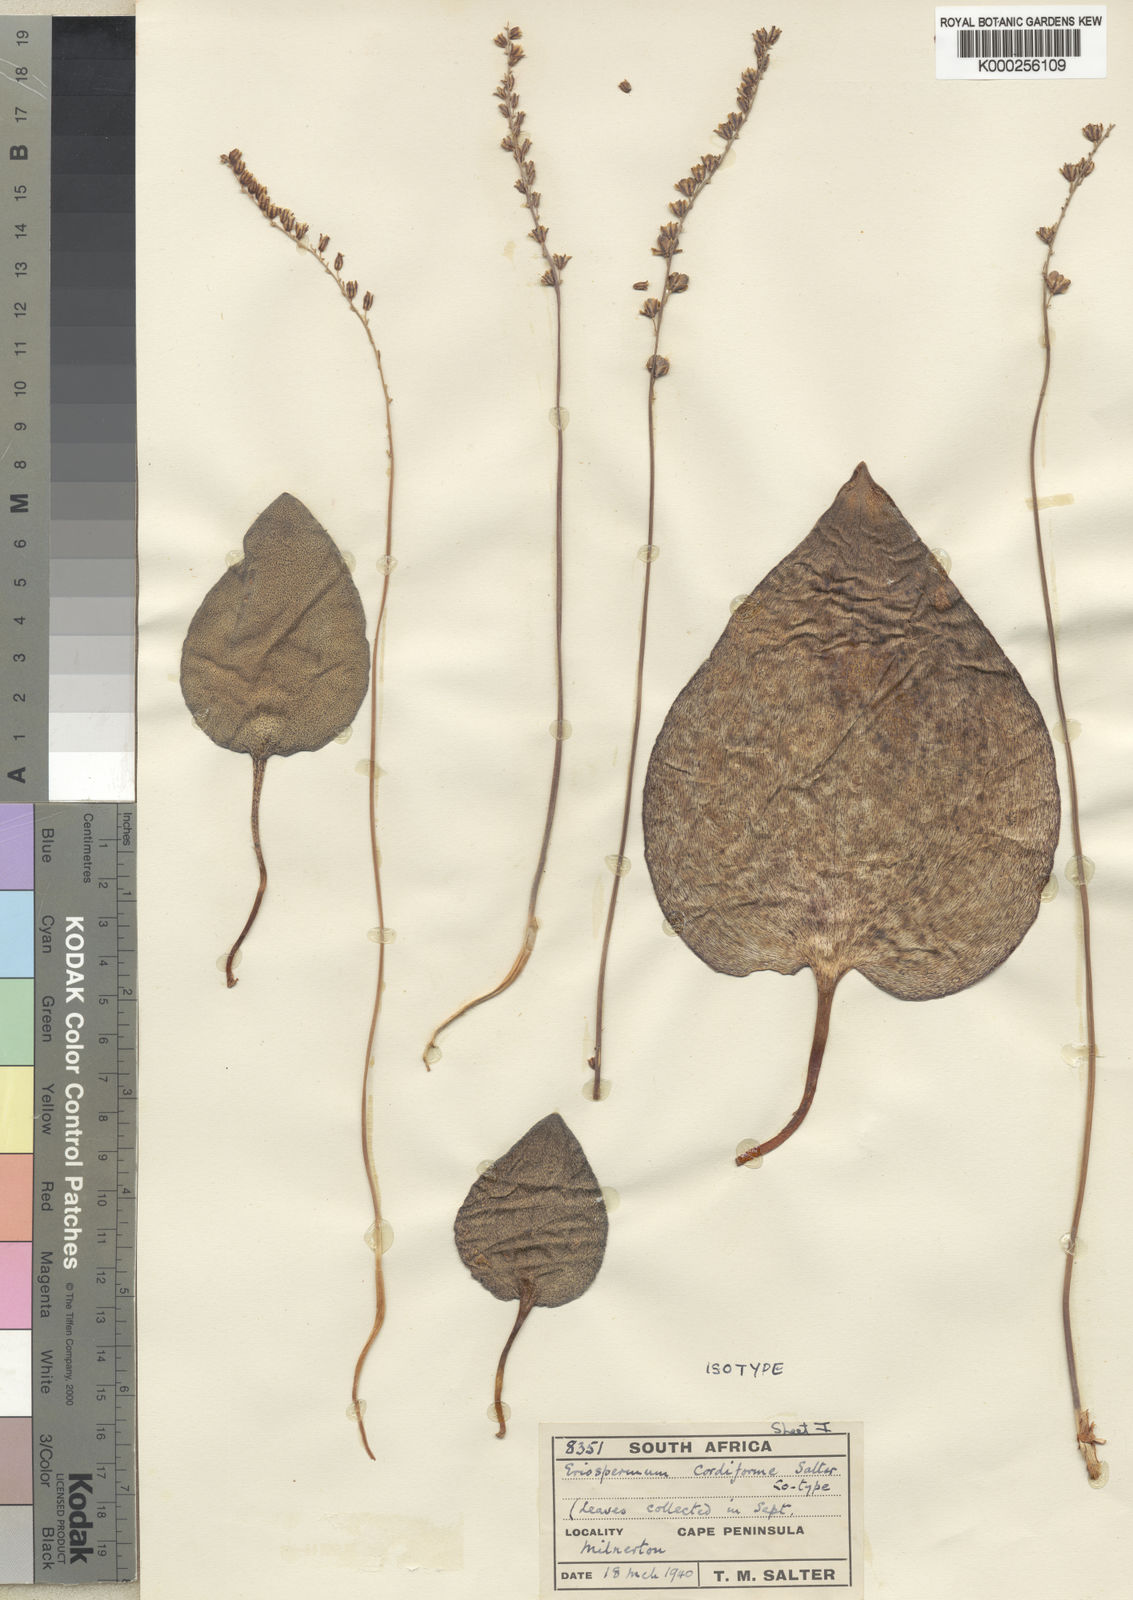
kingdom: Plantae
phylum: Tracheophyta
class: Liliopsida
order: Asparagales
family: Asparagaceae
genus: Eriospermum
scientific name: Eriospermum cordiforme
